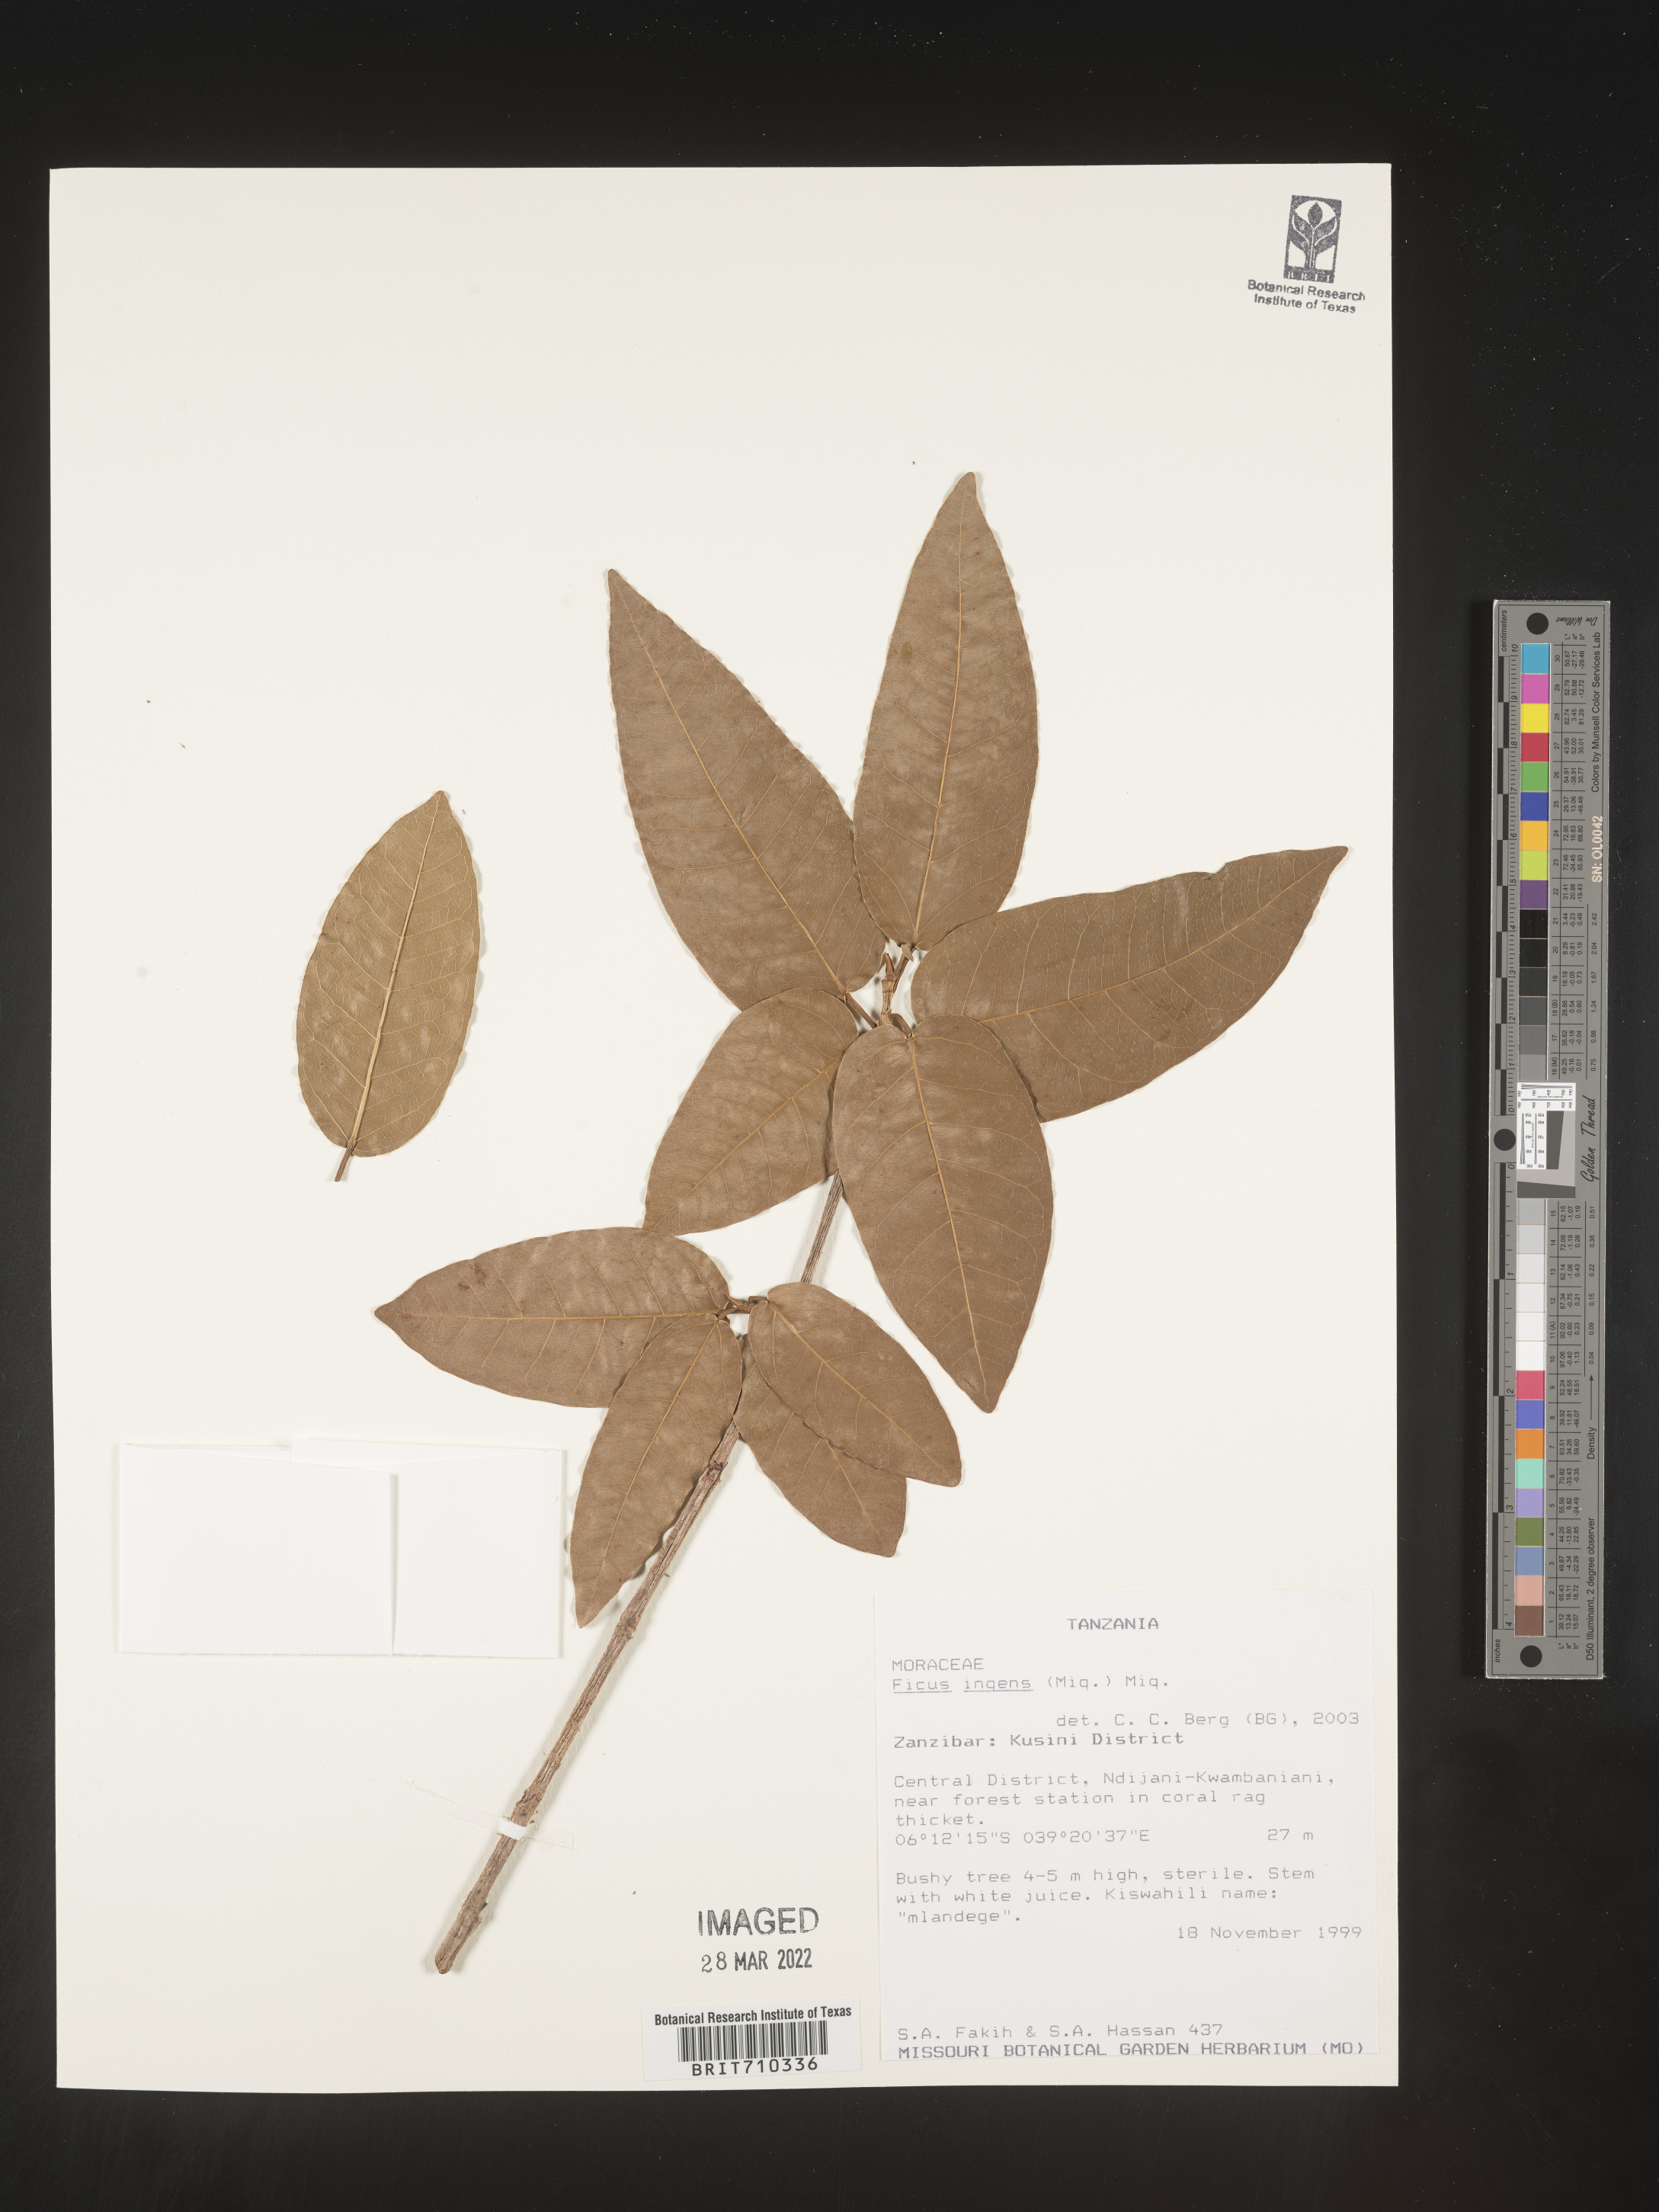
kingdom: Plantae
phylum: Tracheophyta
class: Magnoliopsida
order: Rosales
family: Moraceae
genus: Ficus
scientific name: Ficus
